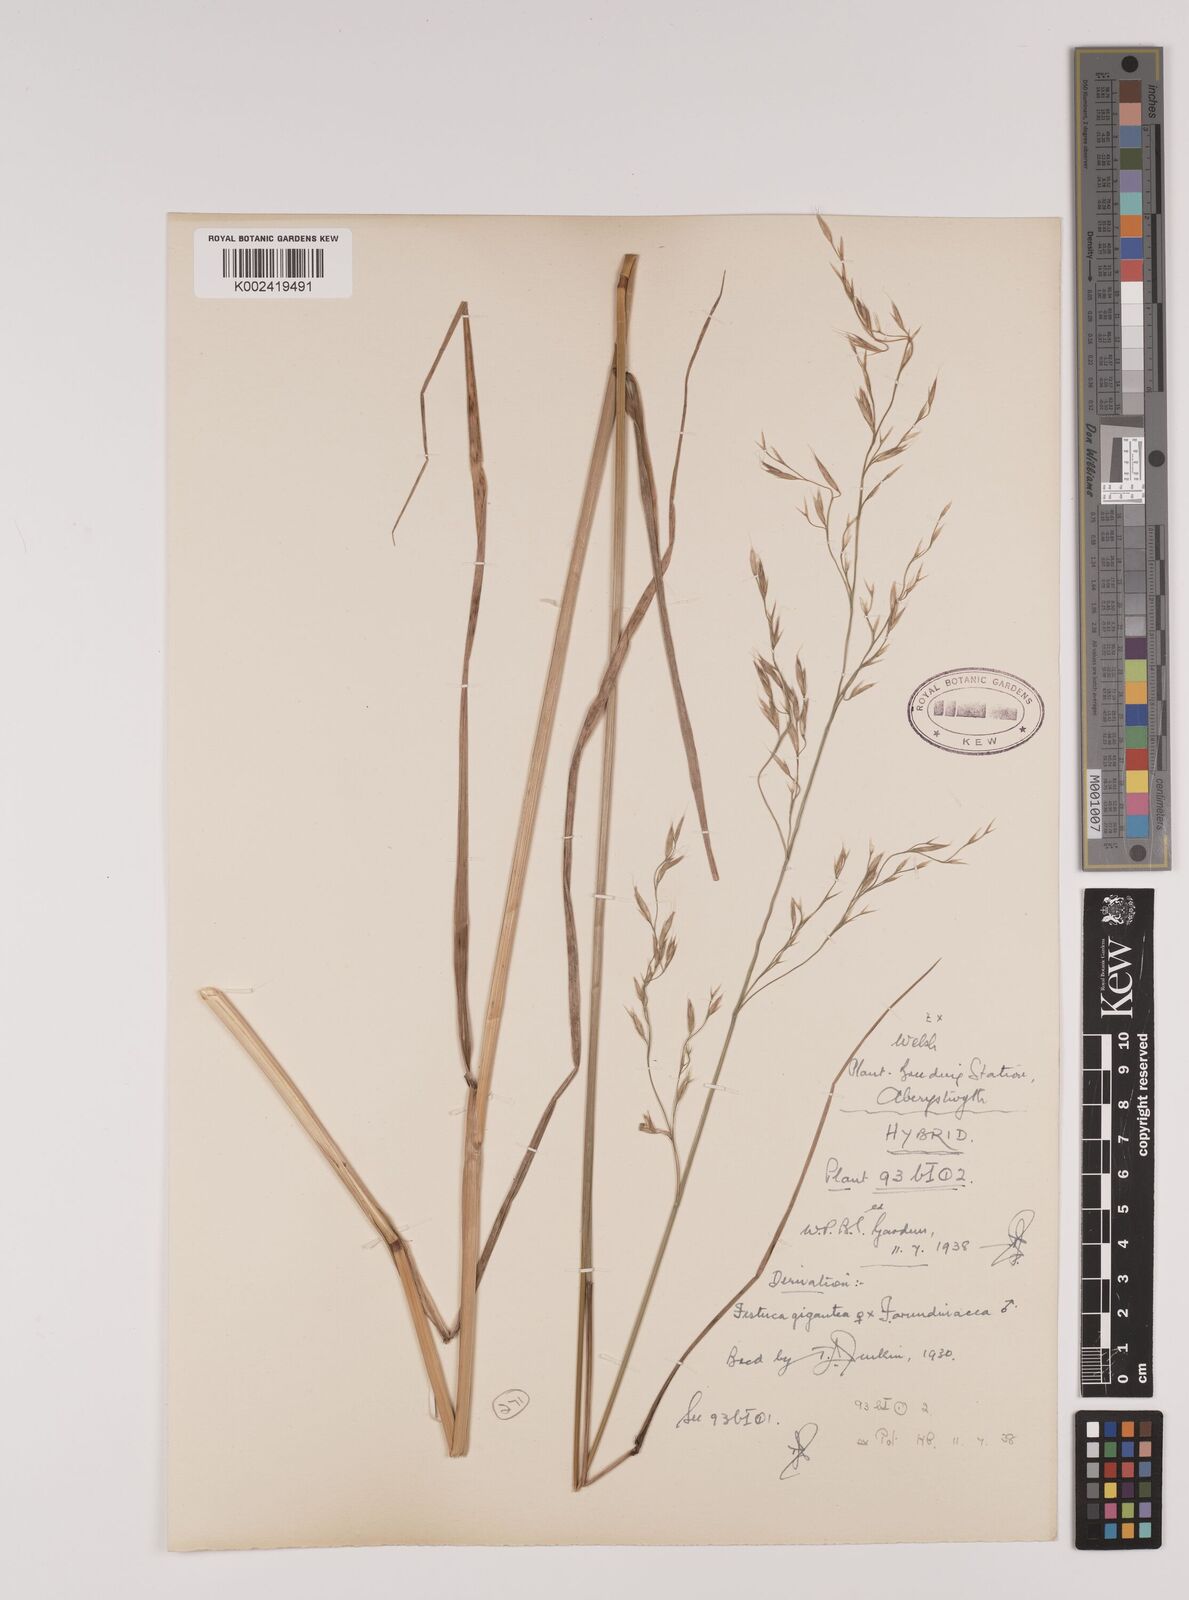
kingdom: Plantae
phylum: Tracheophyta
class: Liliopsida
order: Poales
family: Poaceae
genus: Lolium
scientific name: Lolium giganteum
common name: Giant fescue
